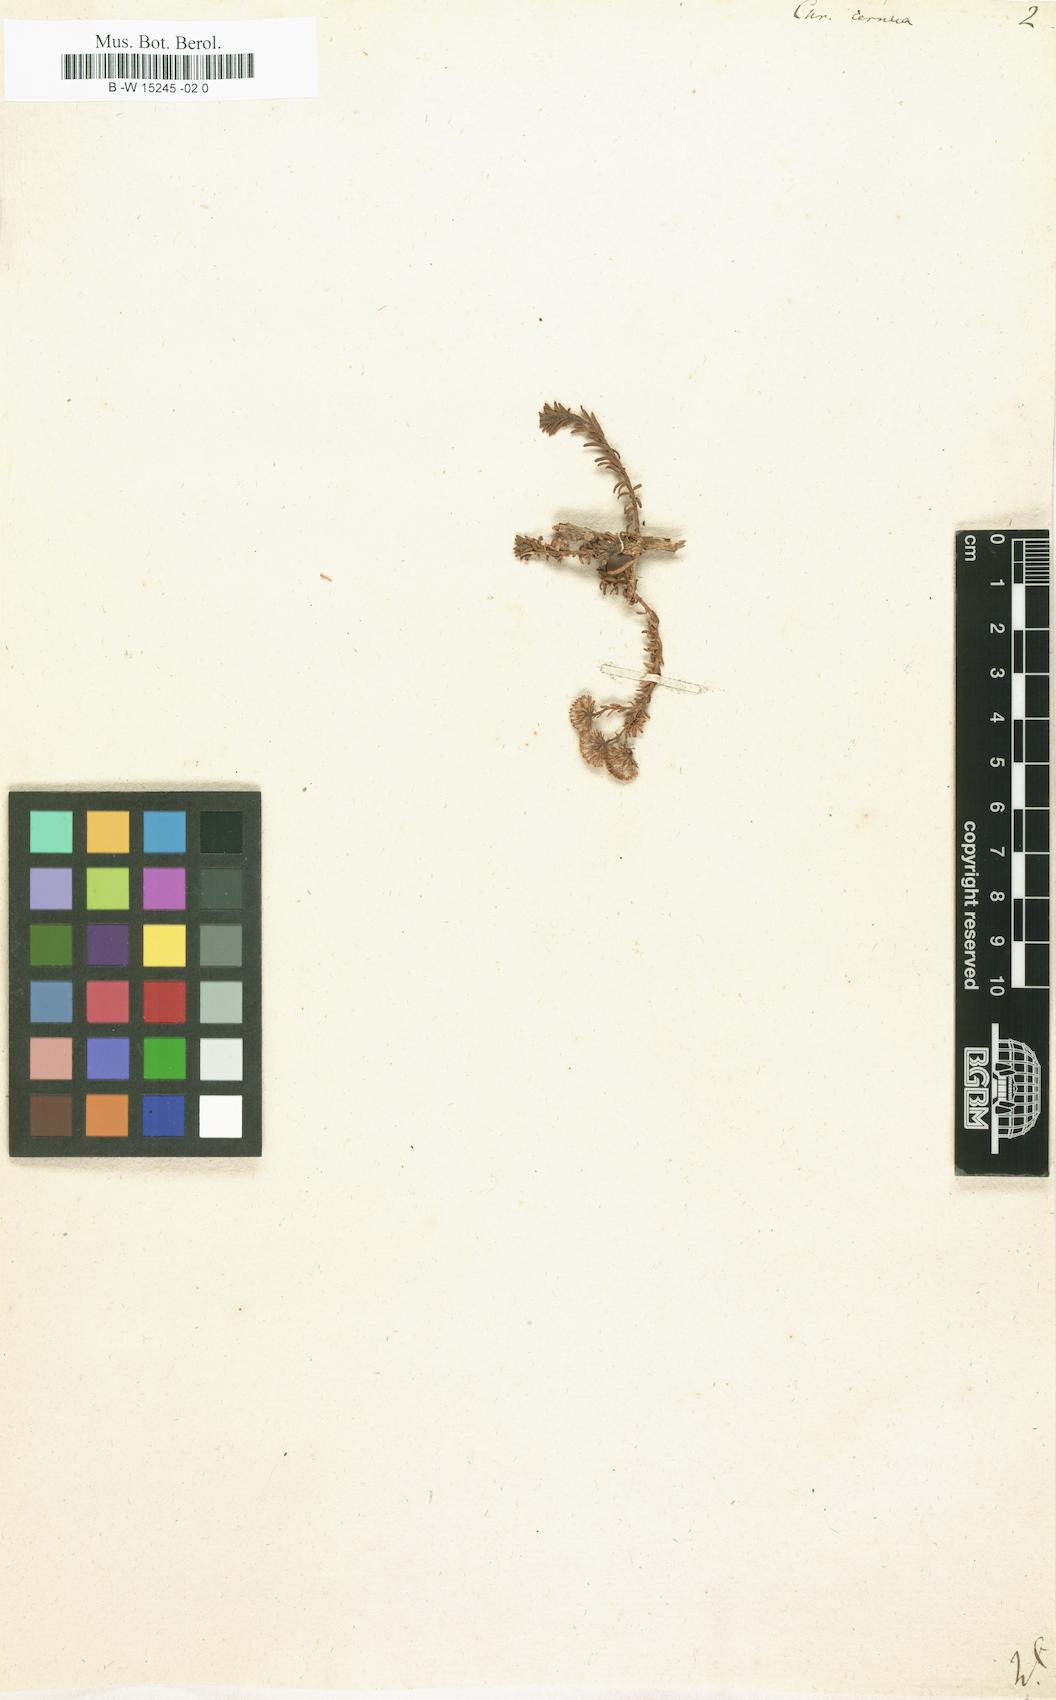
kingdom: Plantae
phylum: Tracheophyta
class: Magnoliopsida
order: Asterales
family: Asteraceae
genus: Chrysocoma
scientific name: Chrysocoma cernua
